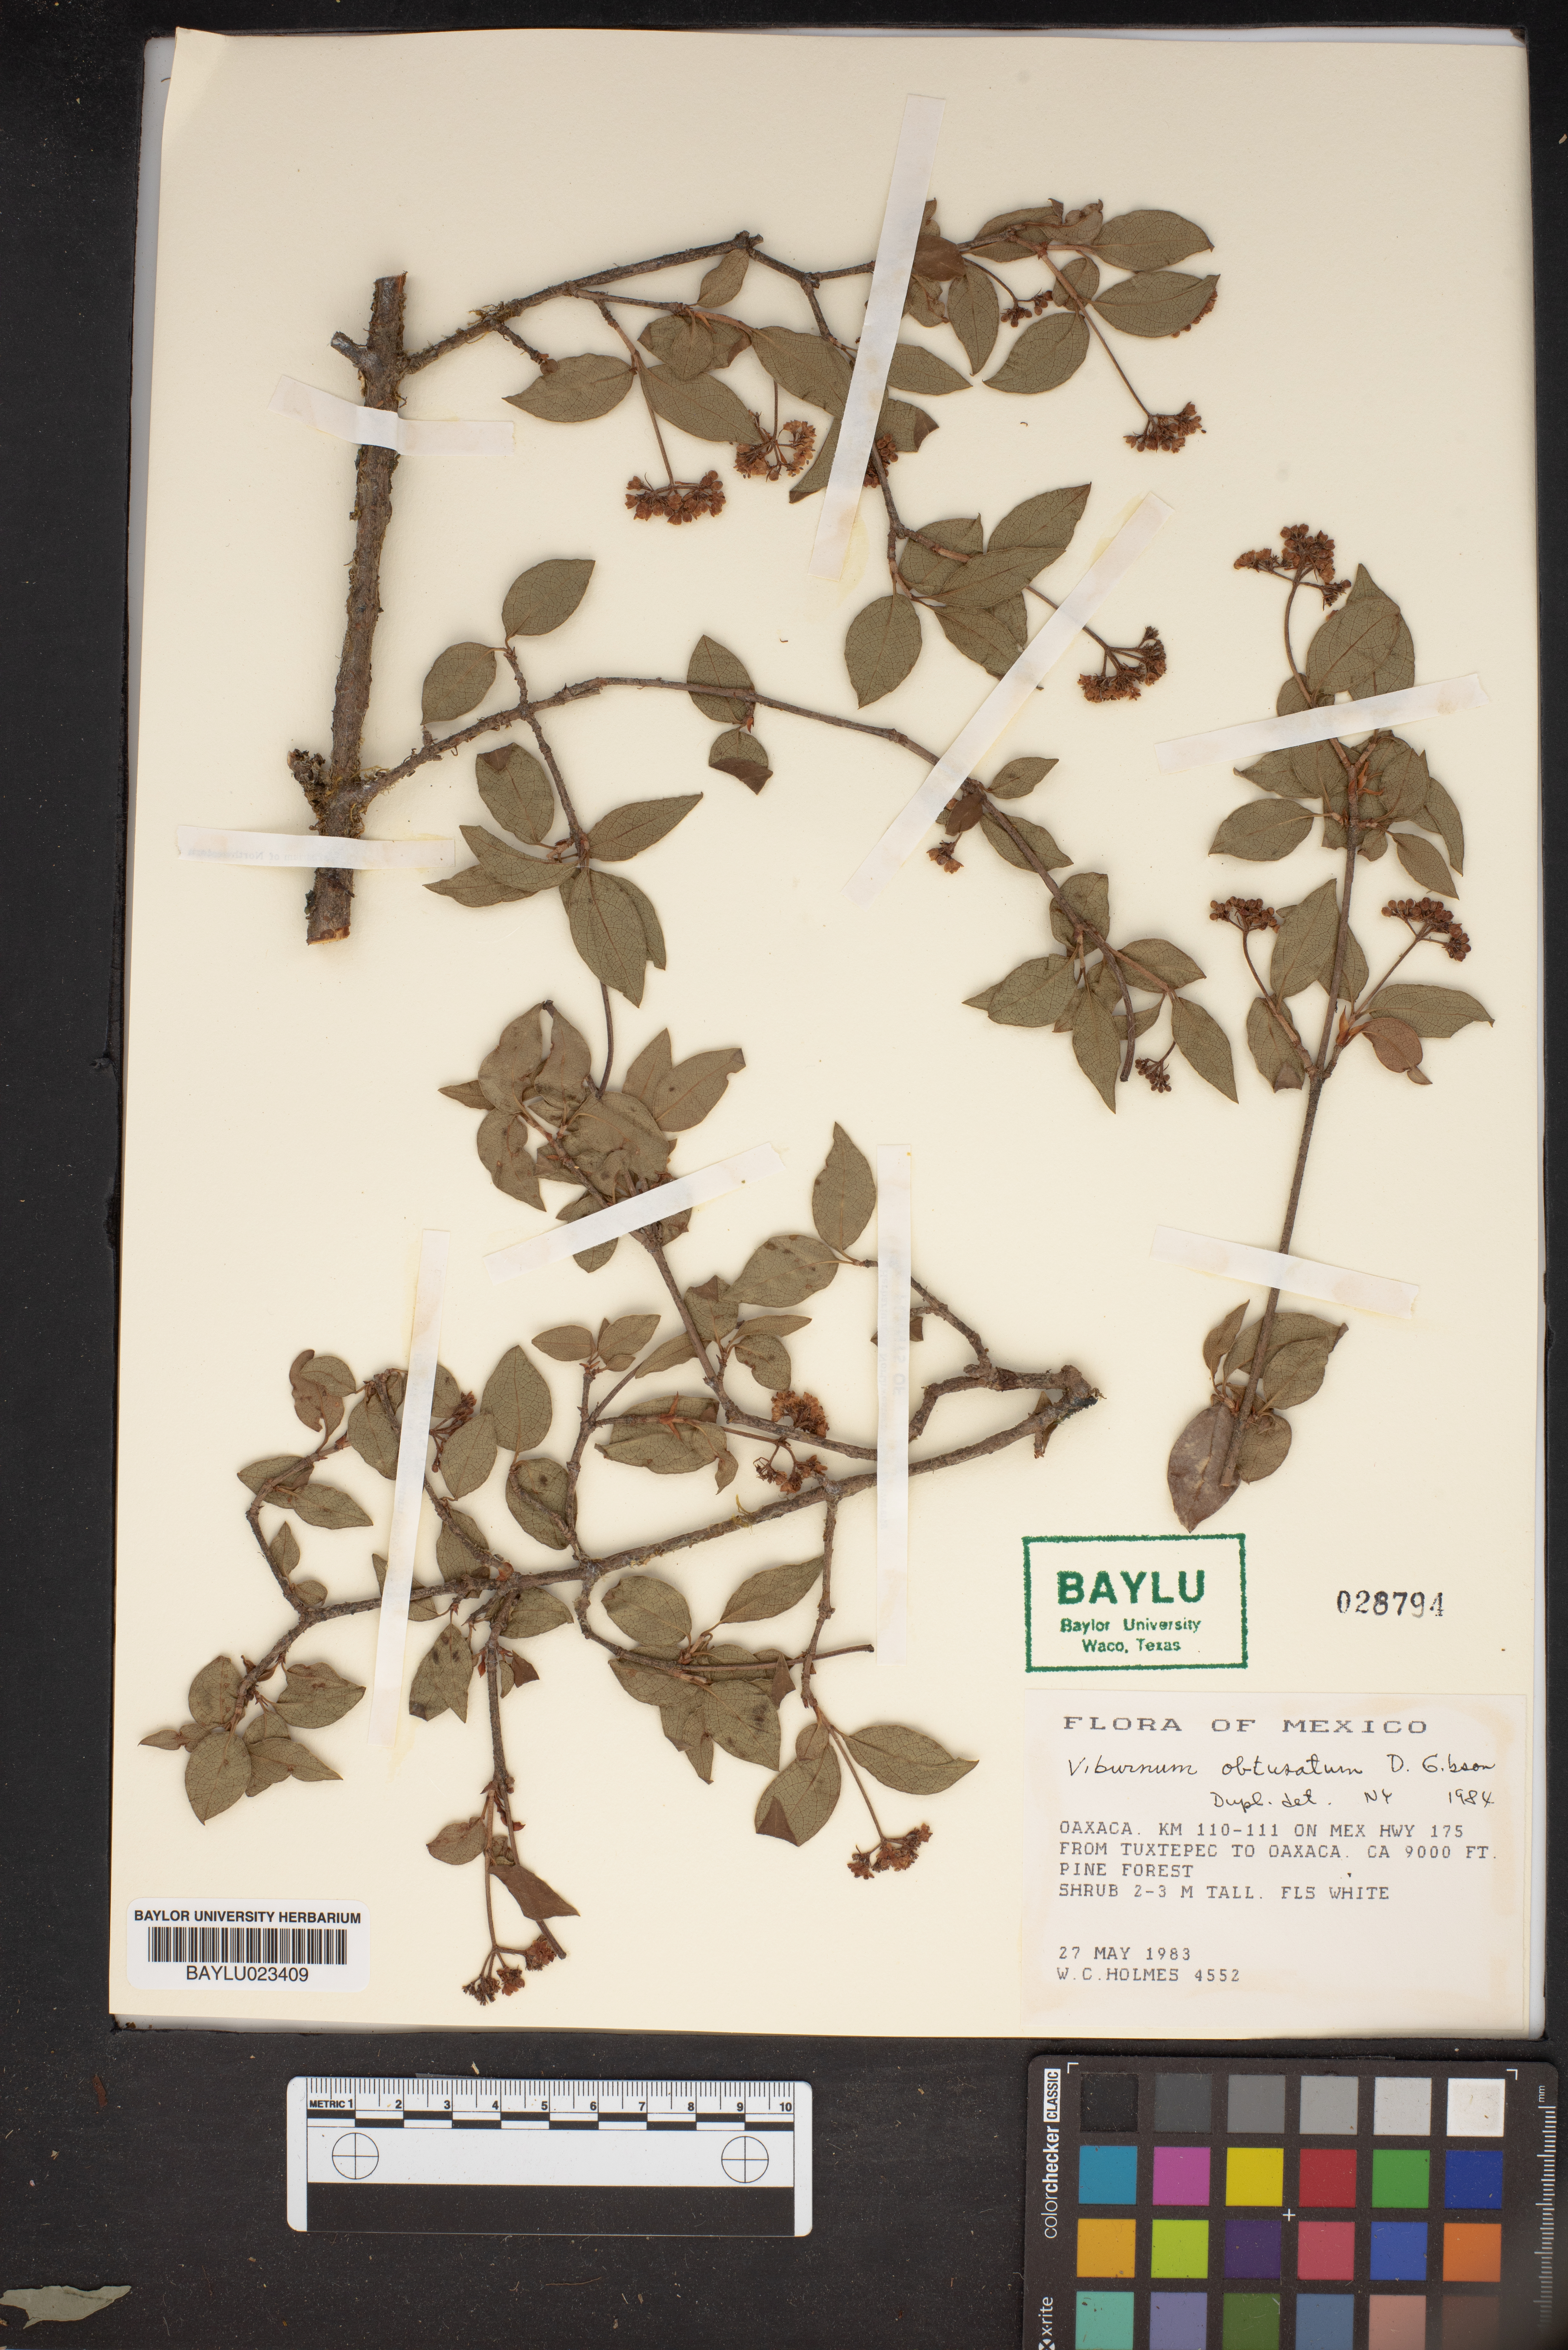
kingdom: Plantae
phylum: Tracheophyta
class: Magnoliopsida
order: Dipsacales
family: Viburnaceae
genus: Viburnum
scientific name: Viburnum obtusatum
